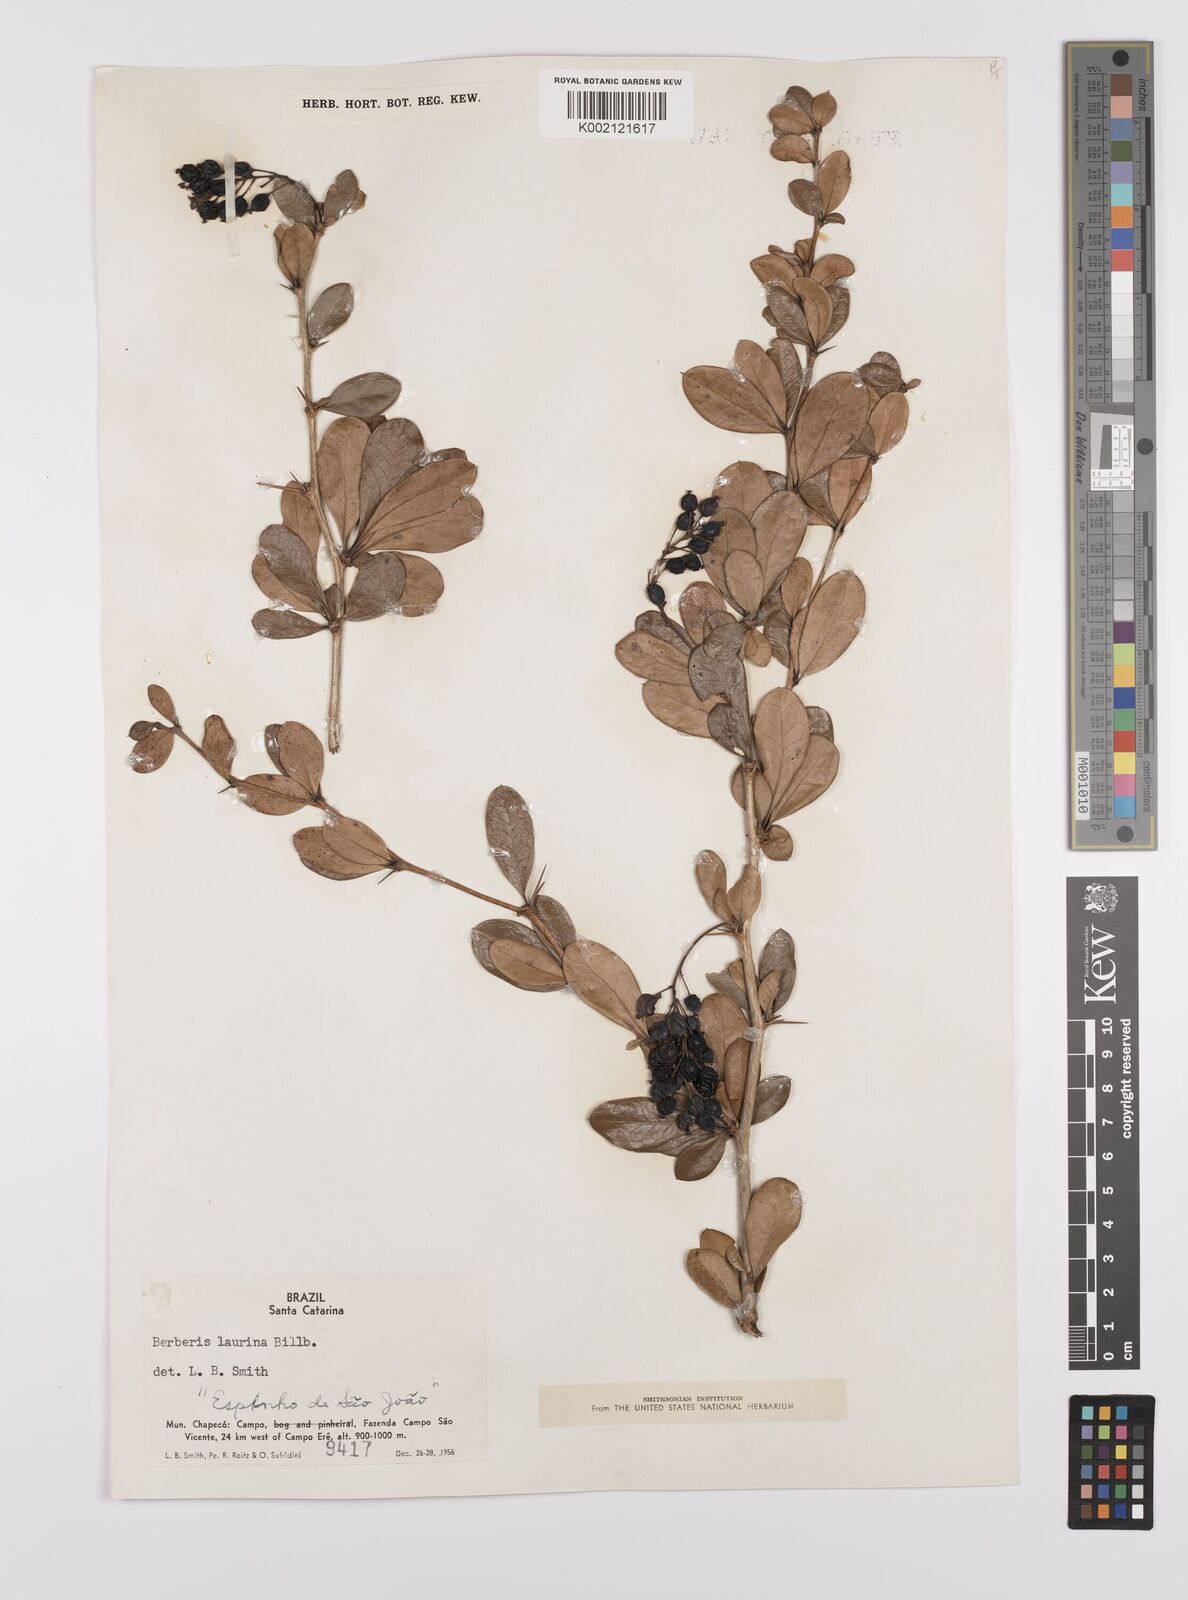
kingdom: Plantae
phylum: Tracheophyta
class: Magnoliopsida
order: Ranunculales
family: Berberidaceae
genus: Berberis
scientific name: Berberis laurina
